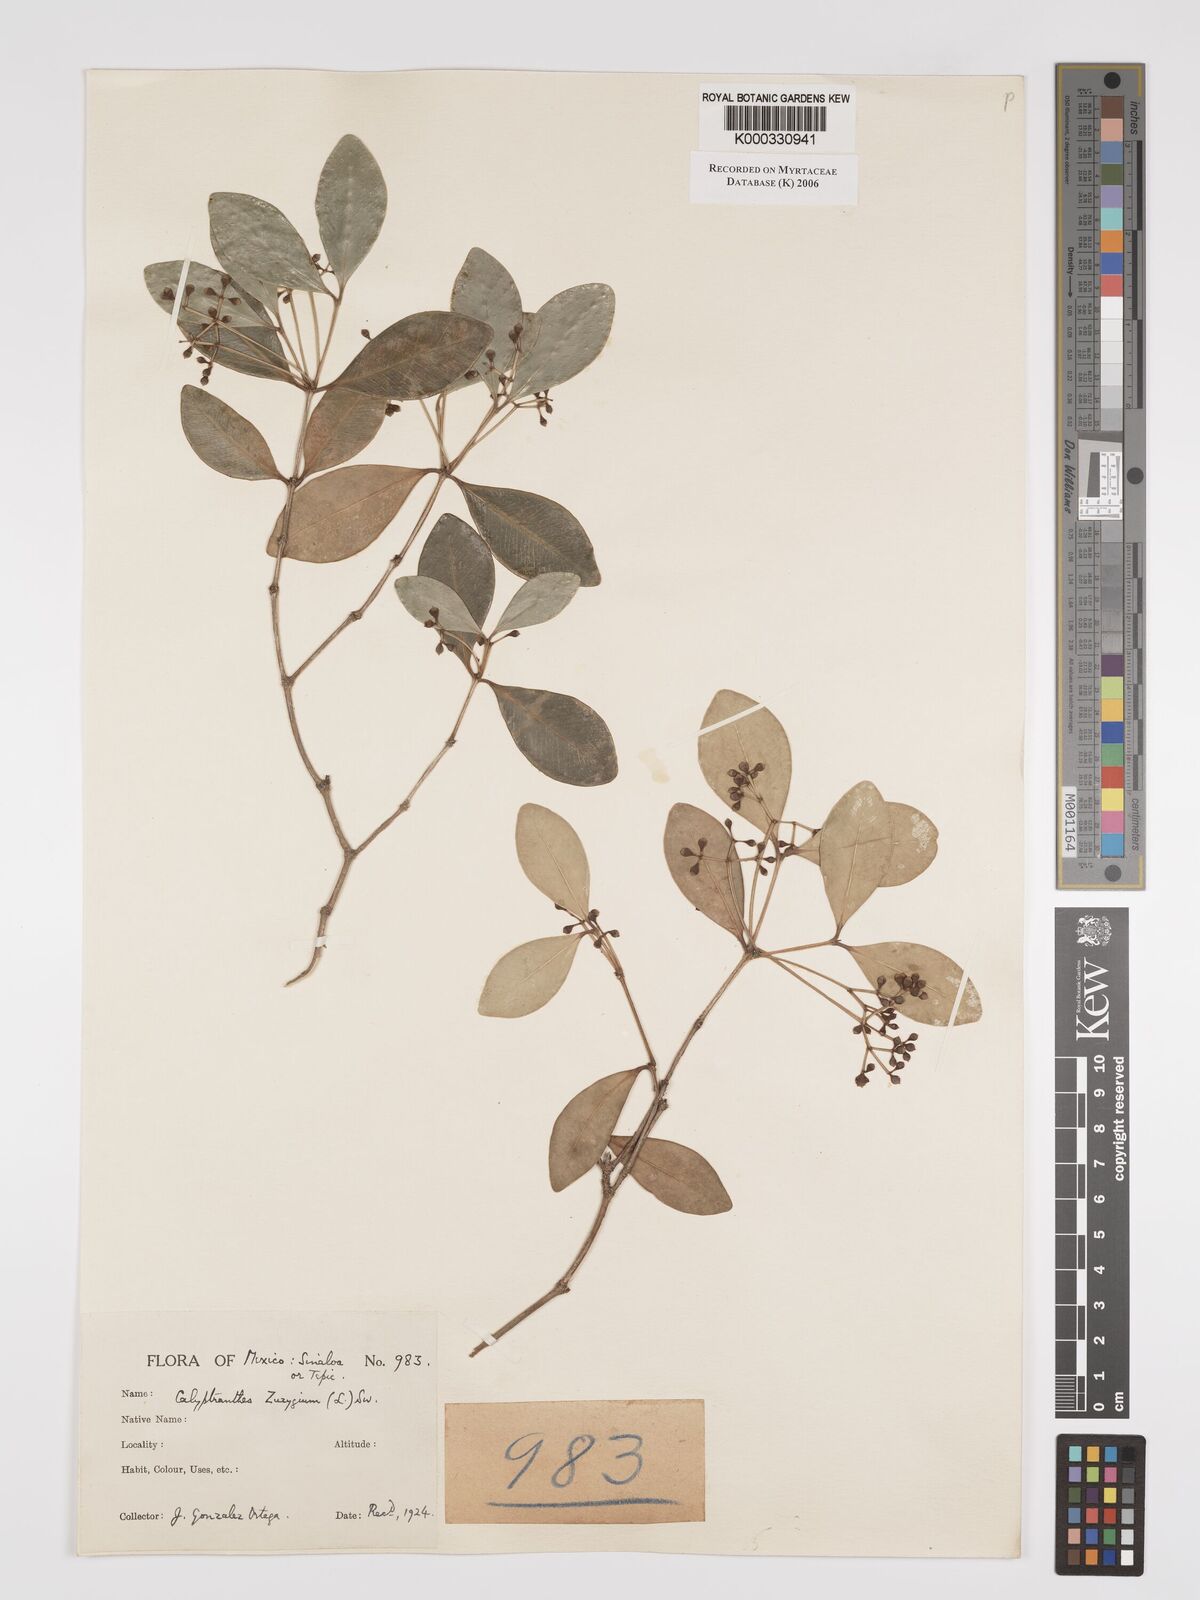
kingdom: Plantae
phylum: Tracheophyta
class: Magnoliopsida
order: Myrtales
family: Myrtaceae
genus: Myrcia
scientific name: Myrcia chytraculia
